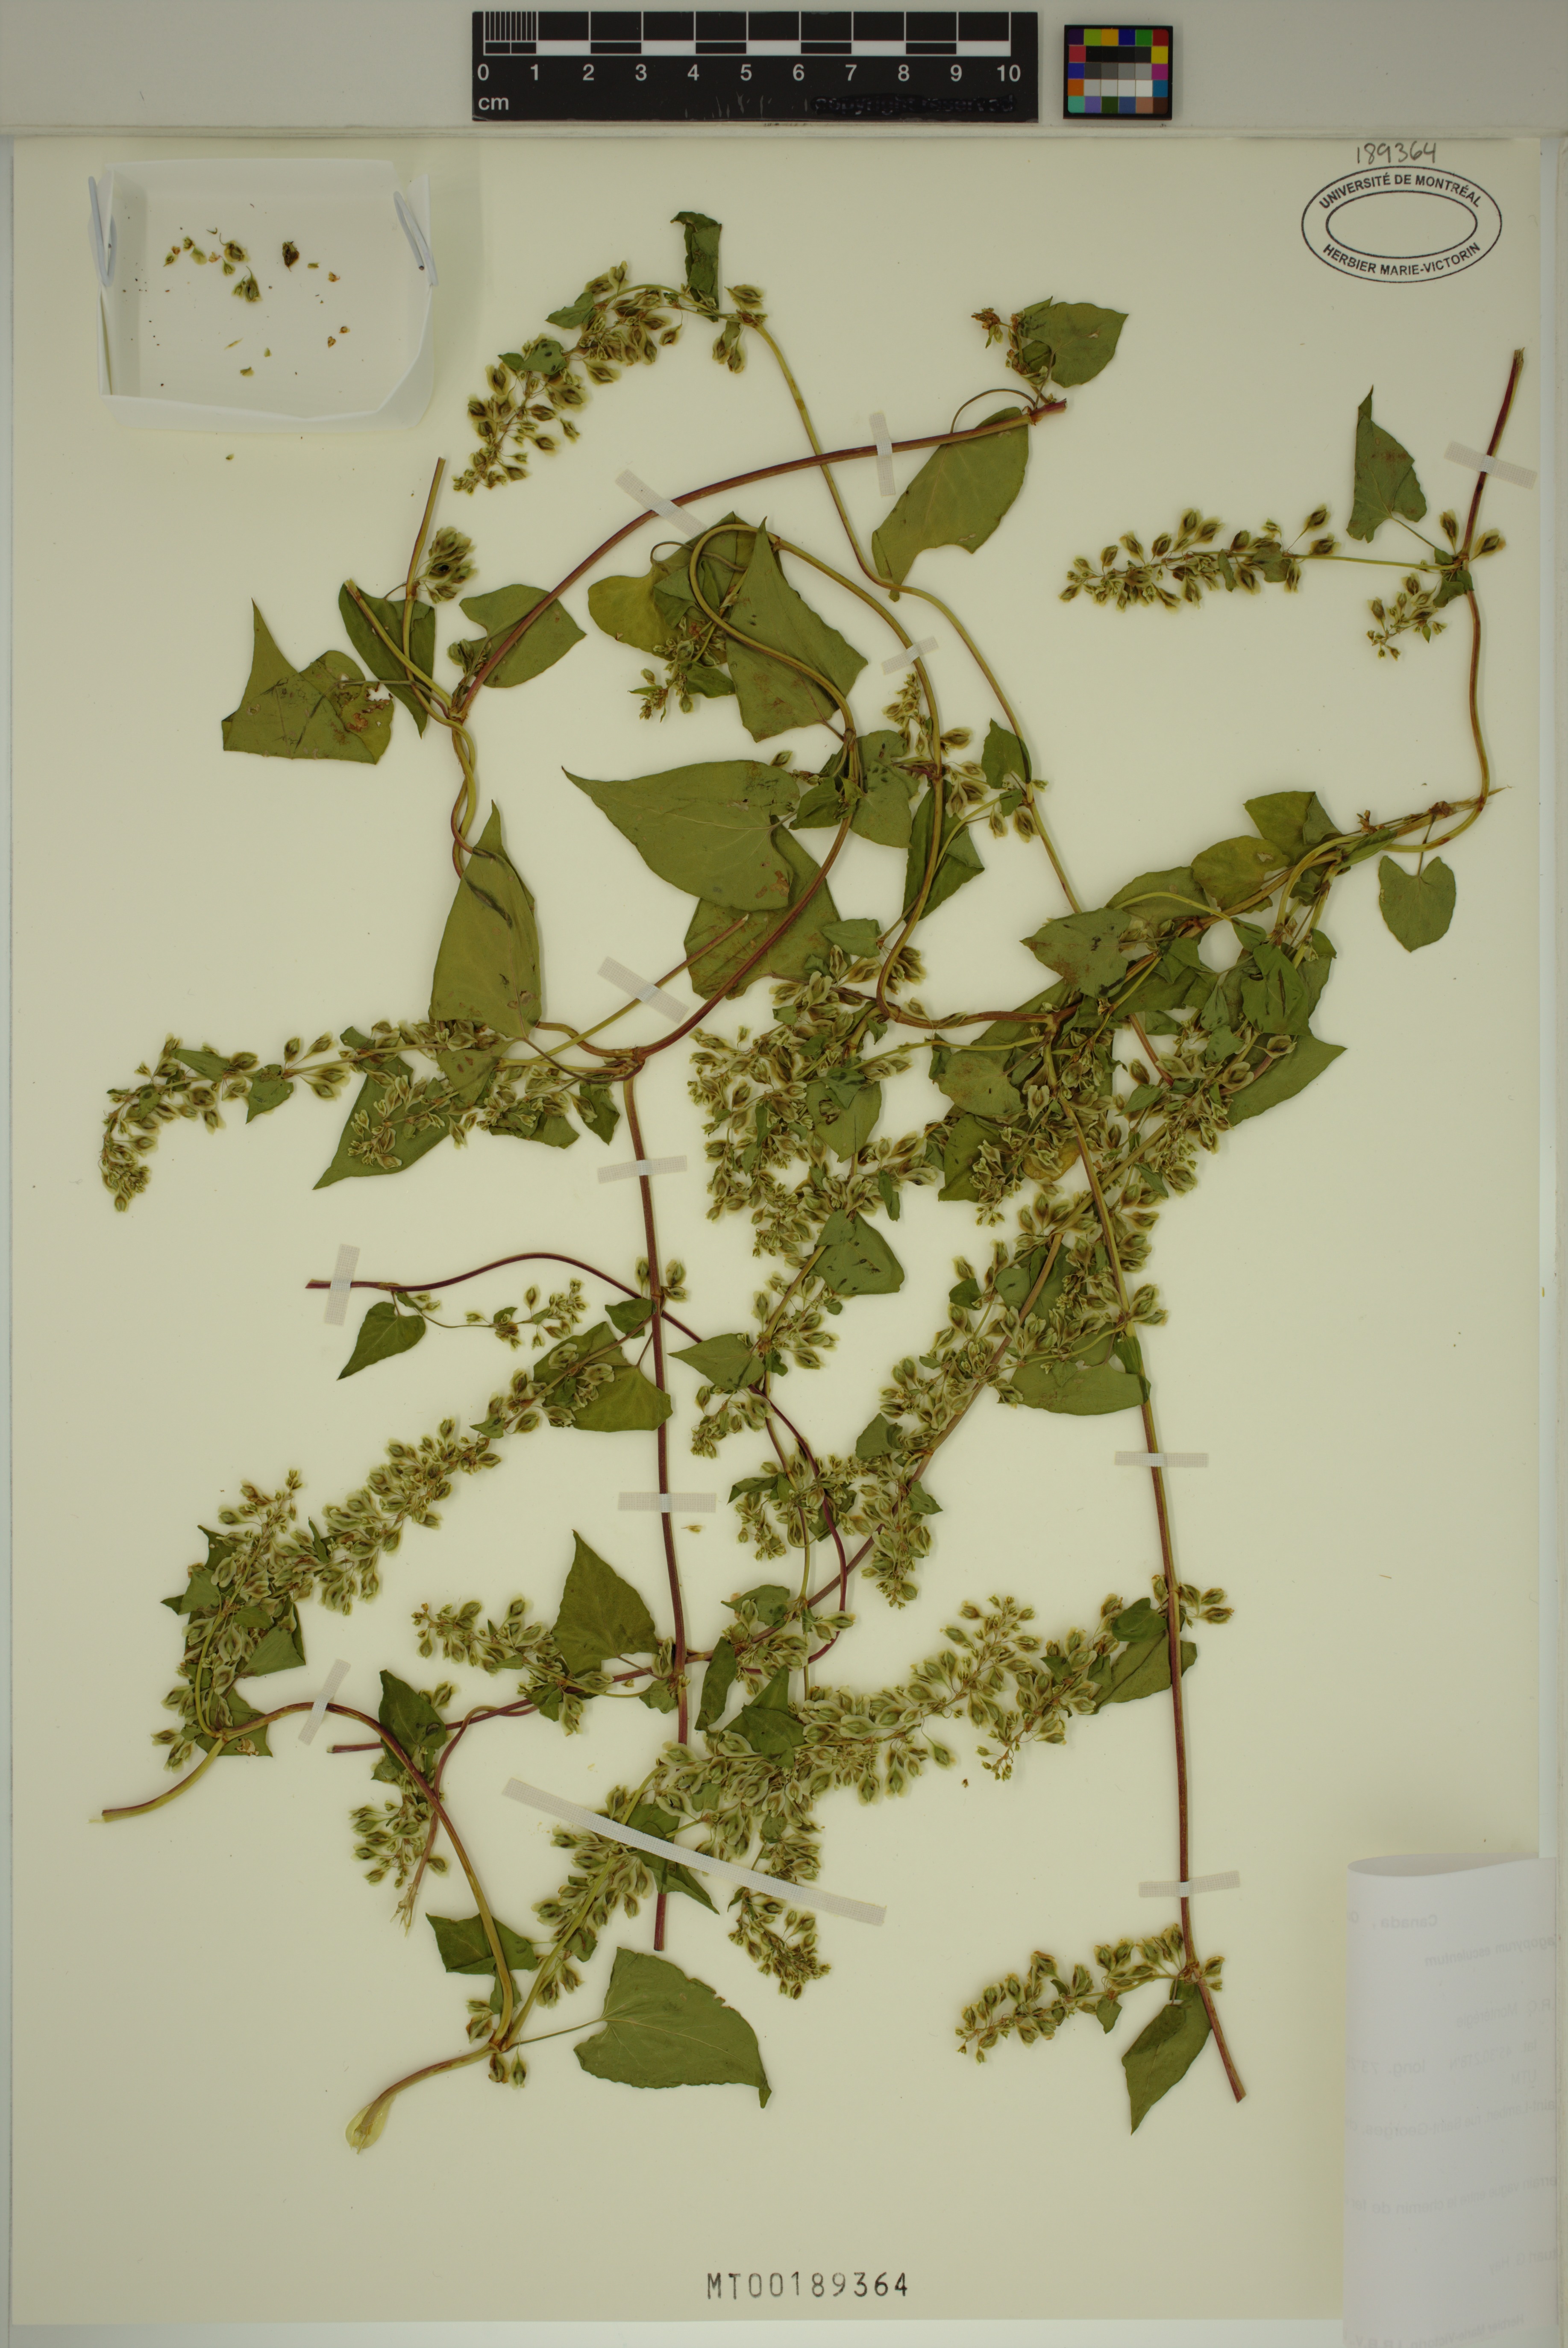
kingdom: Plantae
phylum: Tracheophyta
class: Magnoliopsida
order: Caryophyllales
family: Polygonaceae
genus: Fagopyrum
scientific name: Fagopyrum esculentum
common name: Buckwheat
